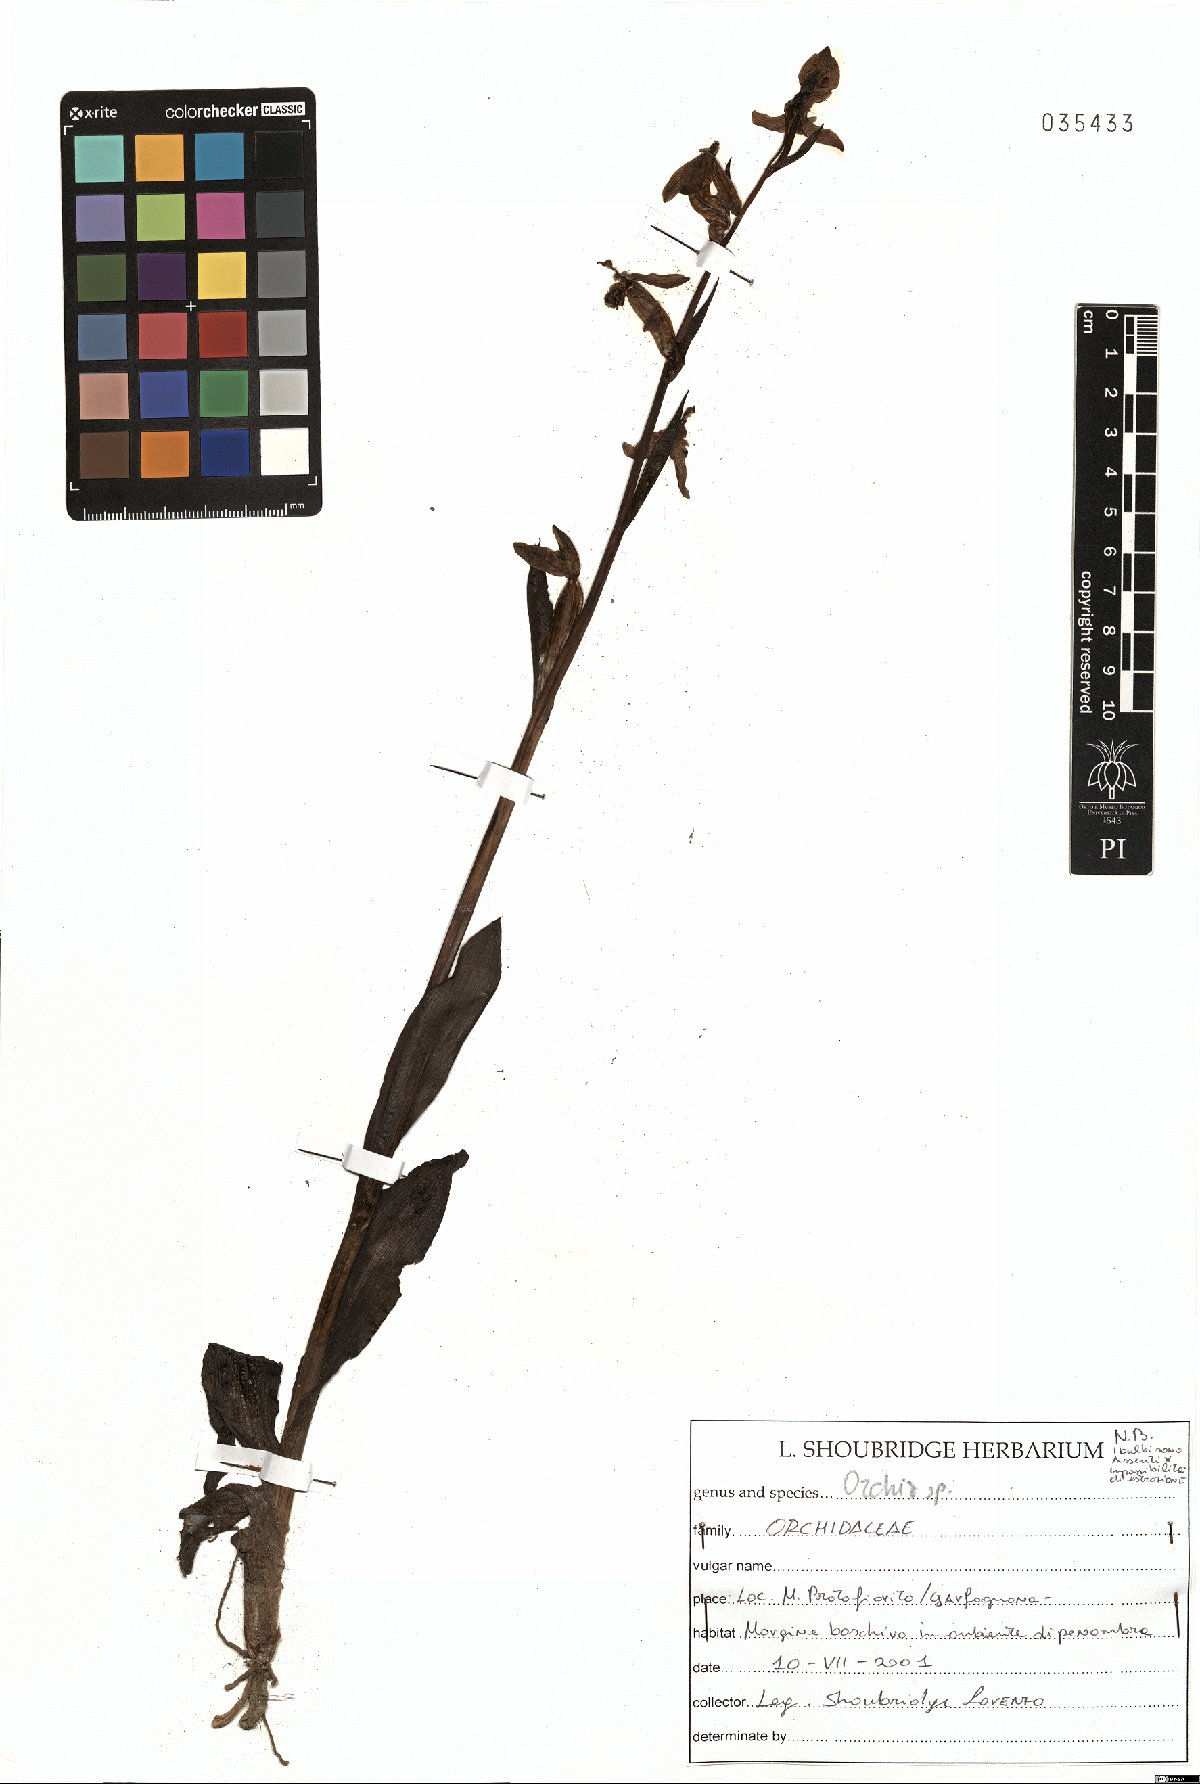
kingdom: Plantae
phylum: Tracheophyta
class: Liliopsida
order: Asparagales
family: Orchidaceae
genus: Orchis
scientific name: Orchis
